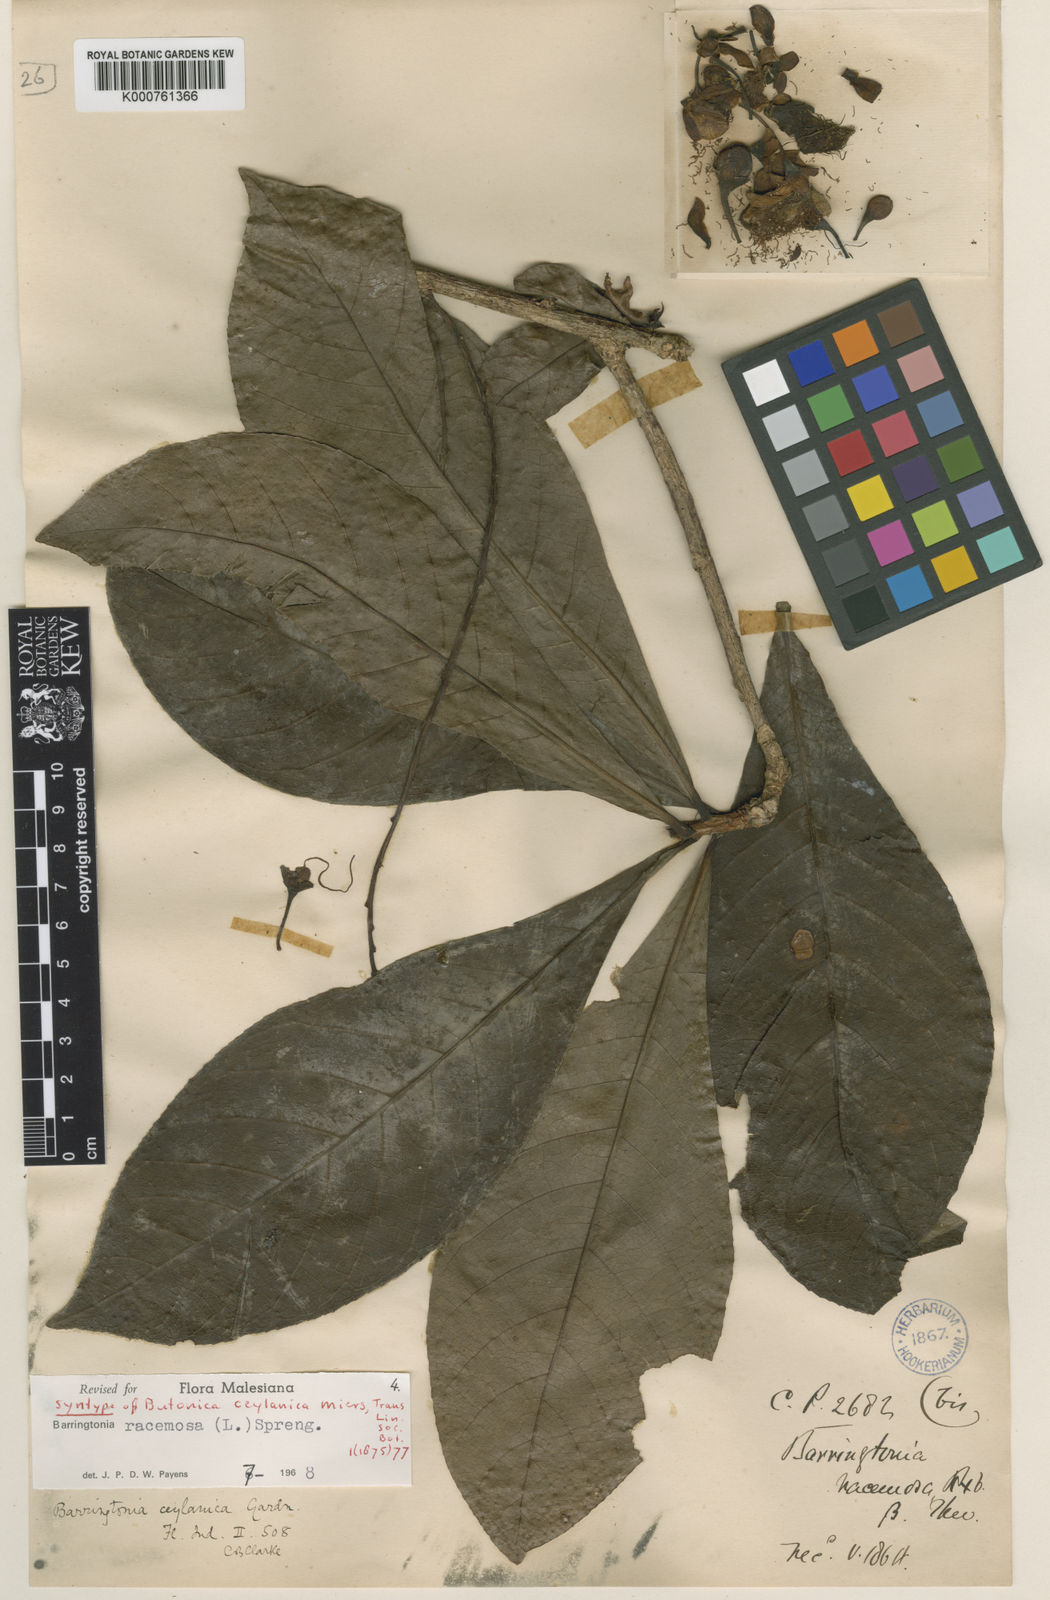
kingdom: Plantae
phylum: Tracheophyta
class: Magnoliopsida
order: Ericales
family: Lecythidaceae
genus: Barringtonia
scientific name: Barringtonia waasii
